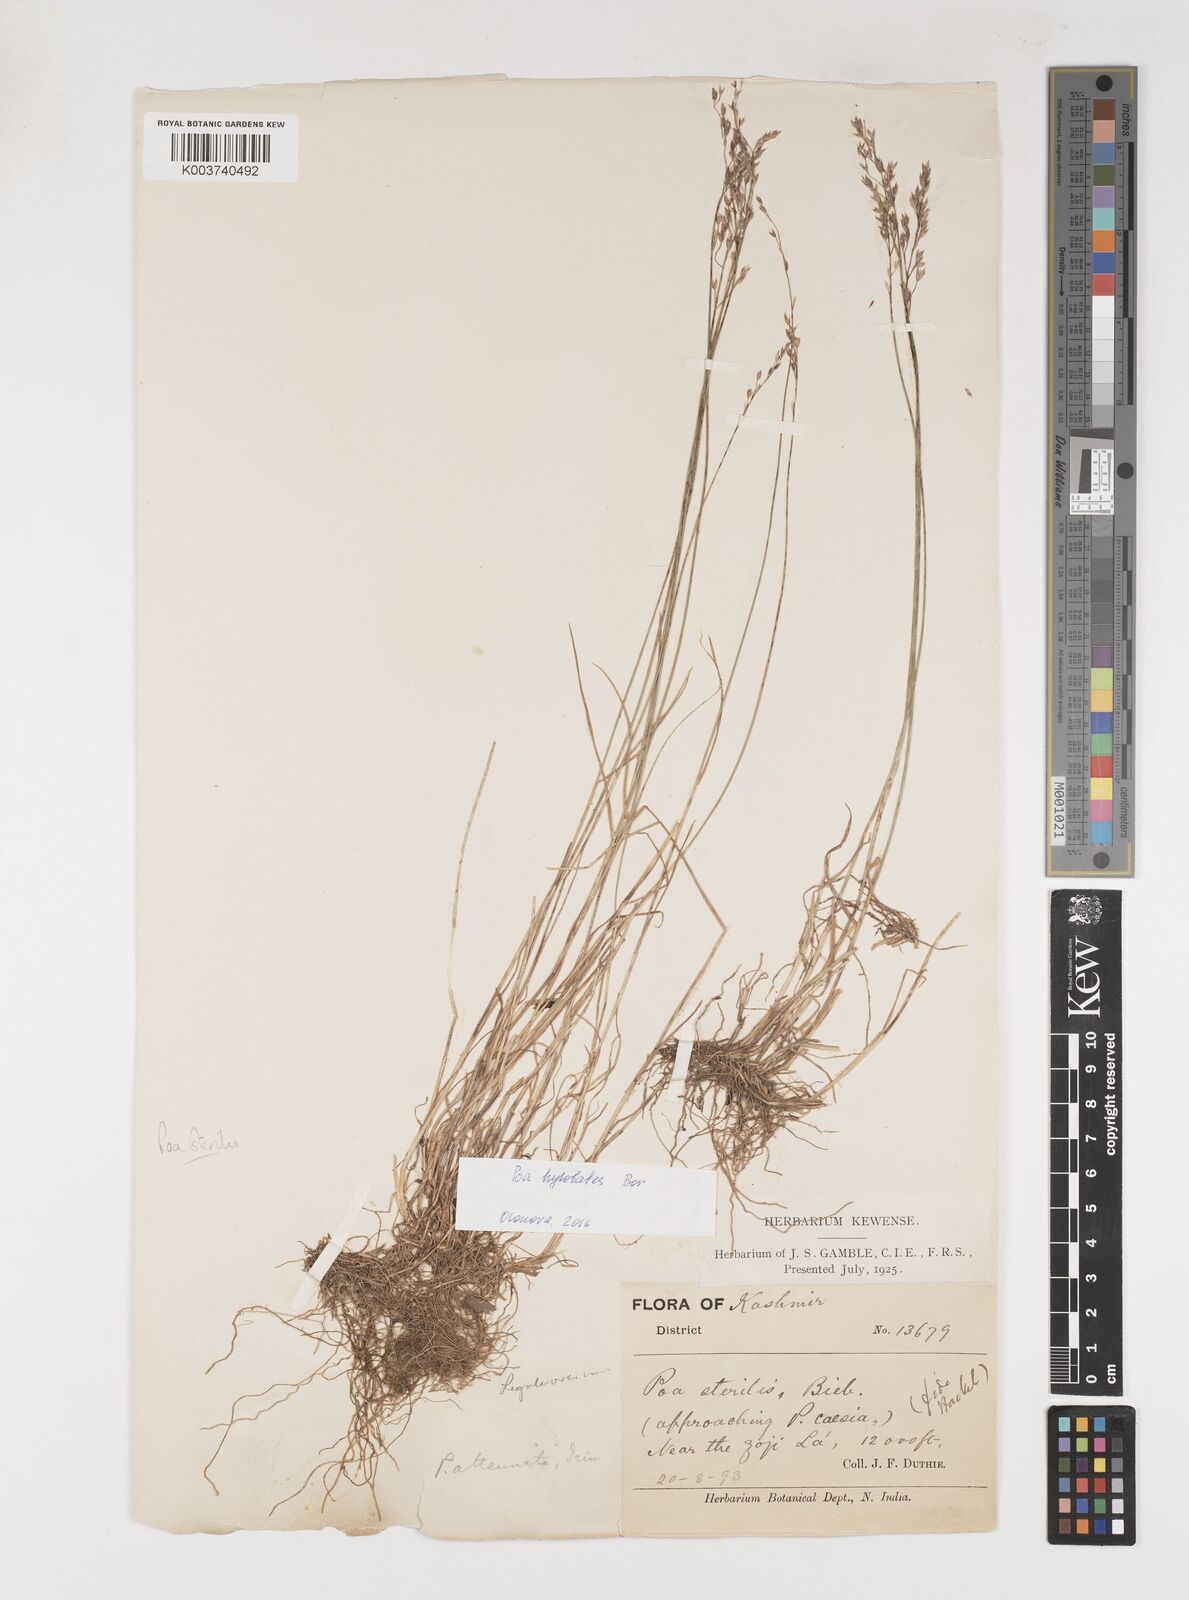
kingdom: Plantae
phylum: Tracheophyta
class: Liliopsida
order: Poales
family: Poaceae
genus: Poa
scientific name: Poa sterilis
